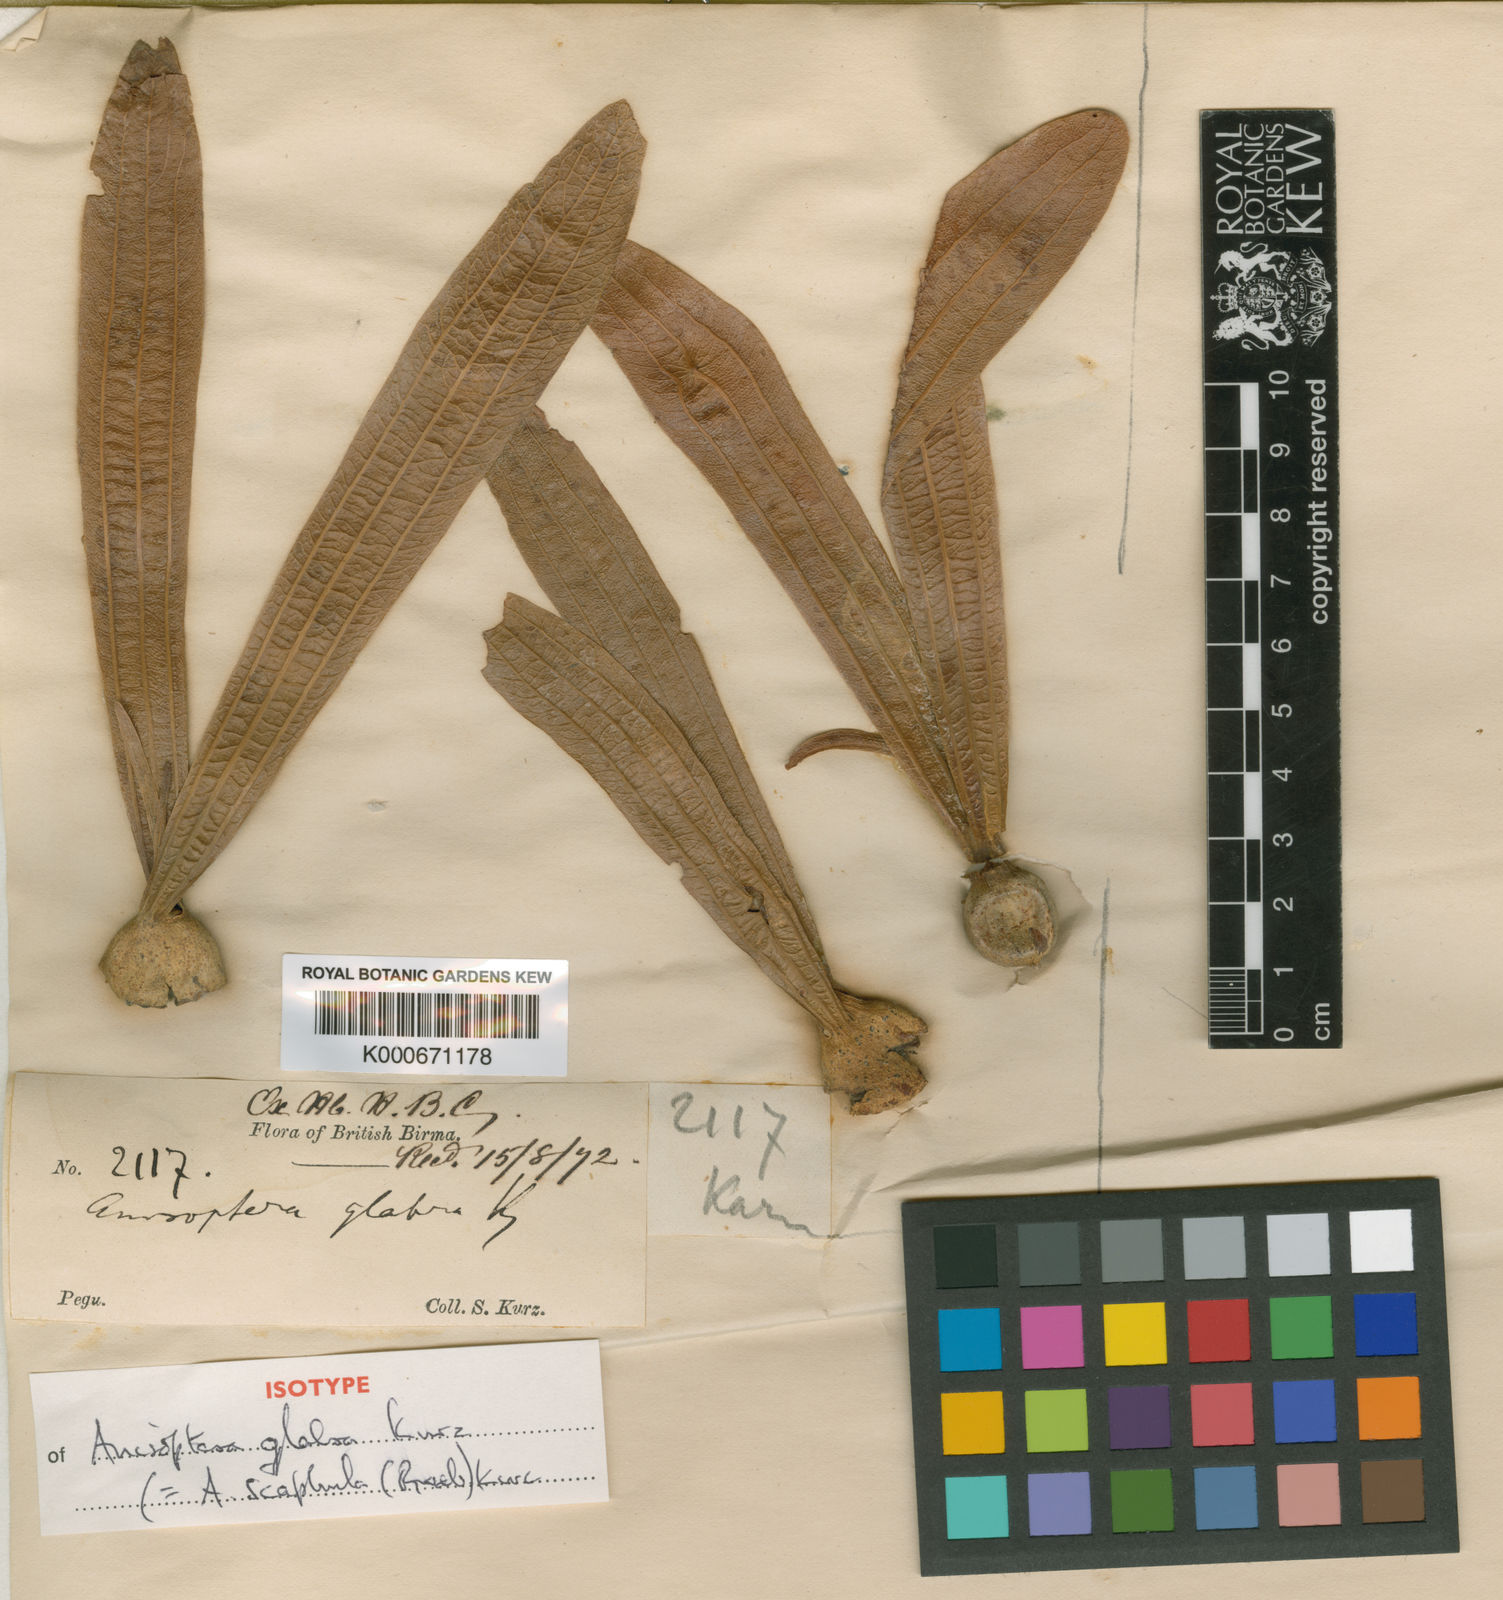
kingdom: Plantae
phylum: Tracheophyta
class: Magnoliopsida
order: Malvales
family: Dipterocarpaceae
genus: Anisoptera
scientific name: Anisoptera scaphula
